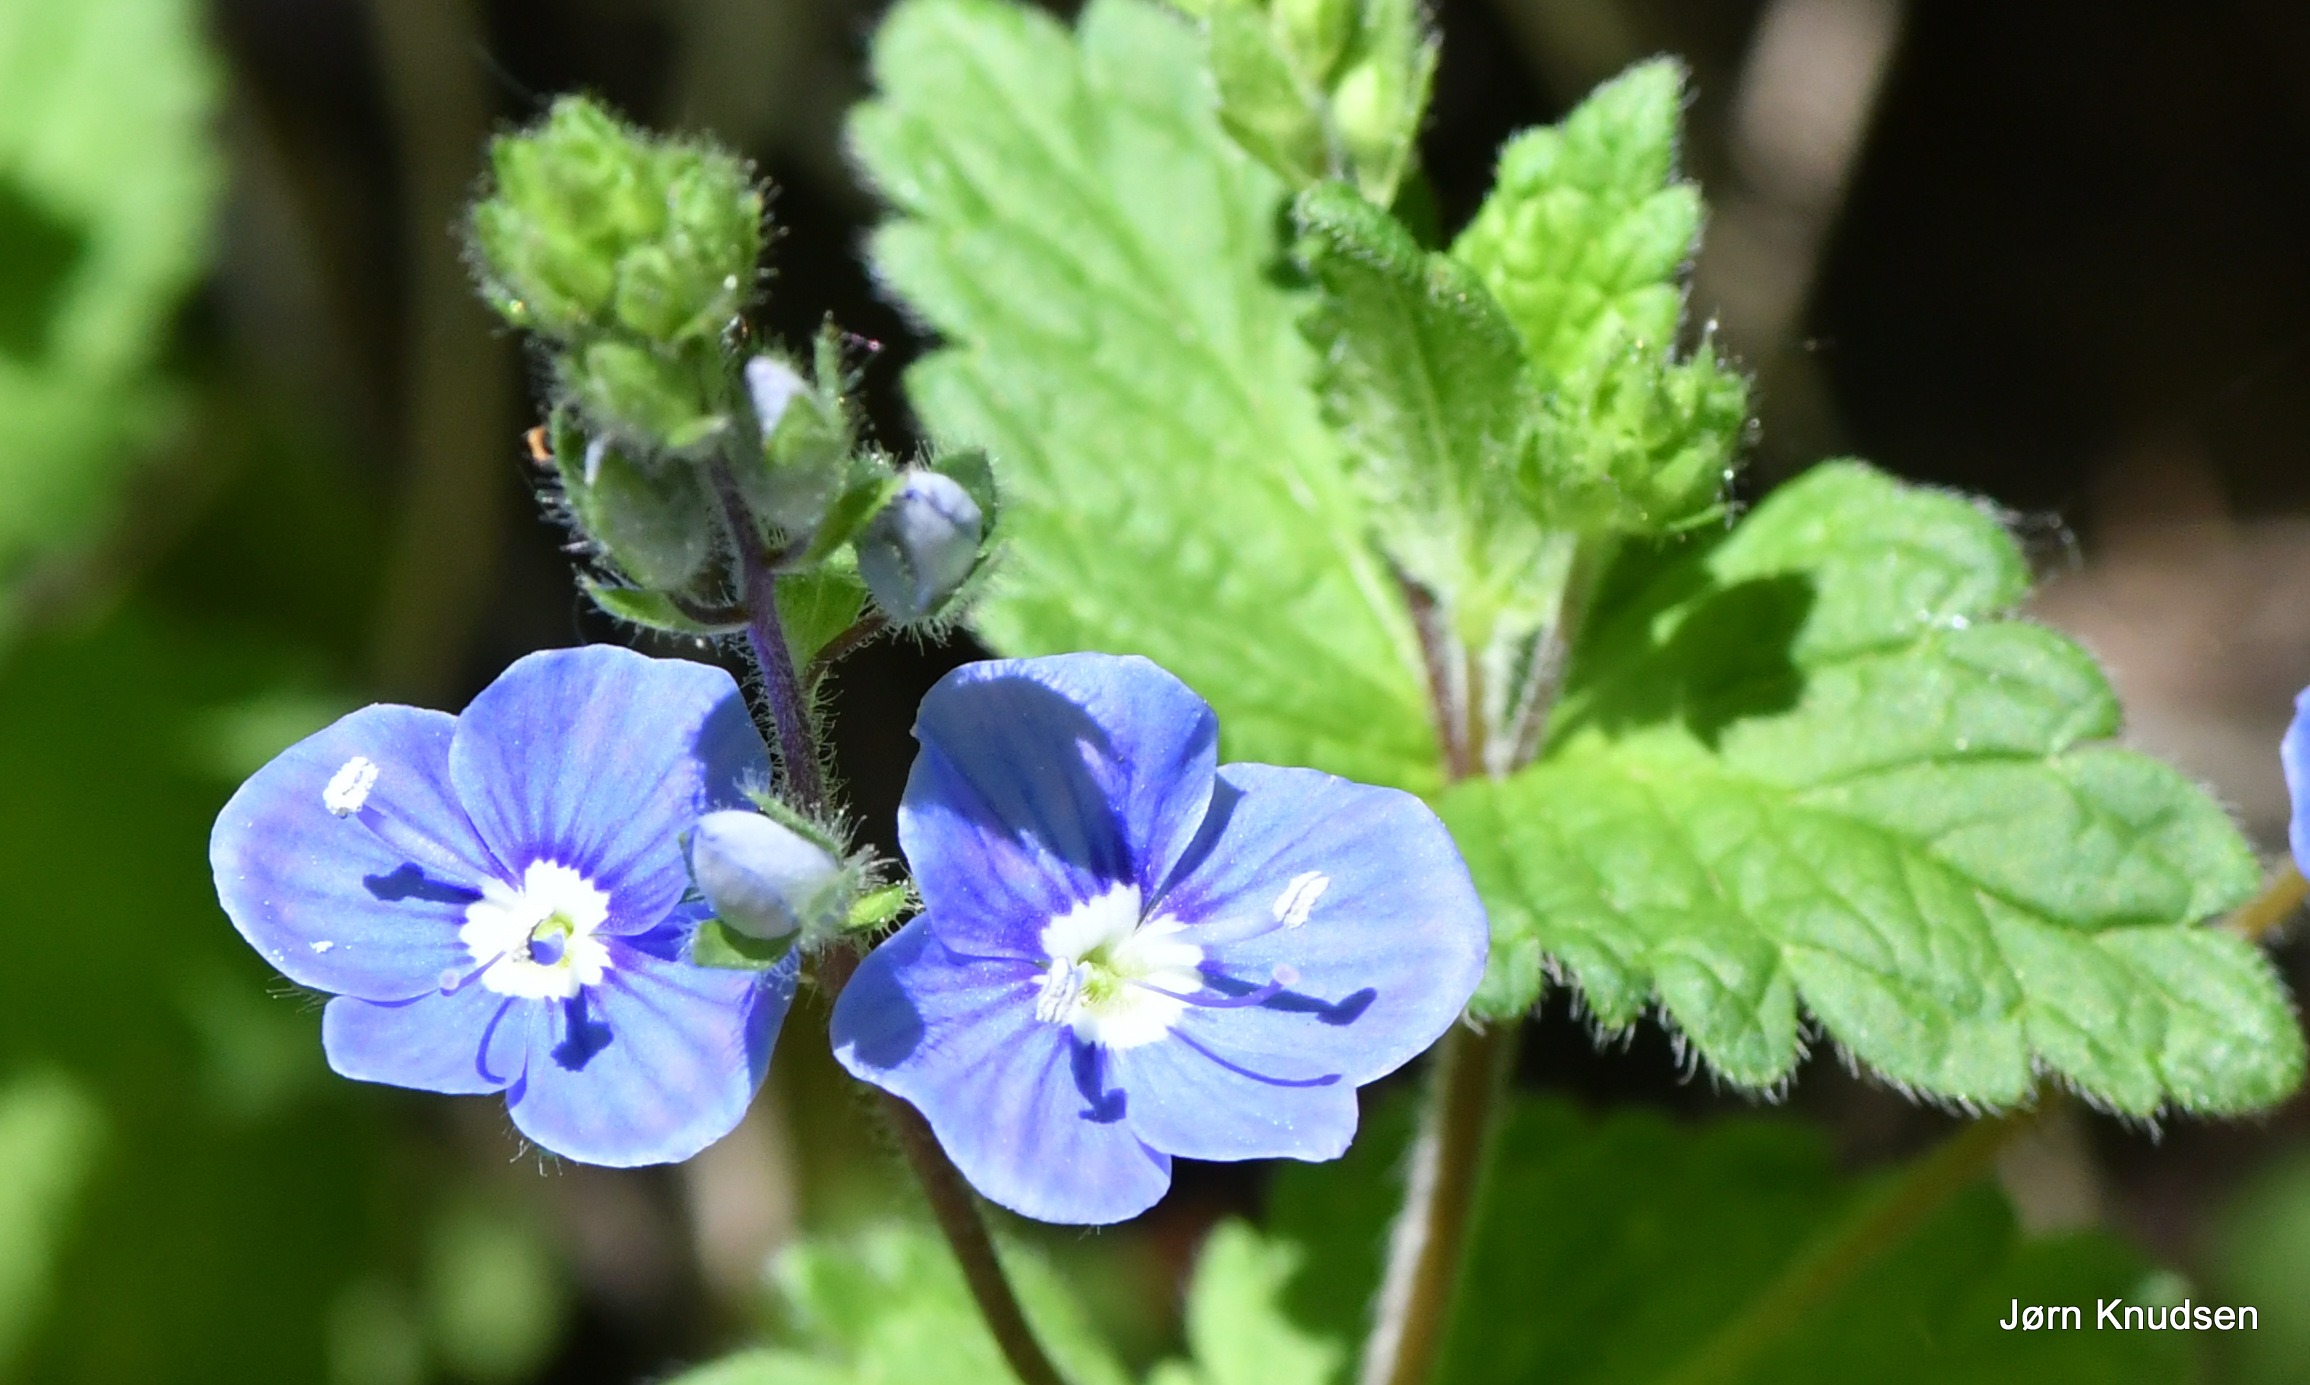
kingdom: Plantae
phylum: Tracheophyta
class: Magnoliopsida
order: Lamiales
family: Plantaginaceae
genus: Veronica
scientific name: Veronica chamaedrys
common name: Tveskægget ærenpris
